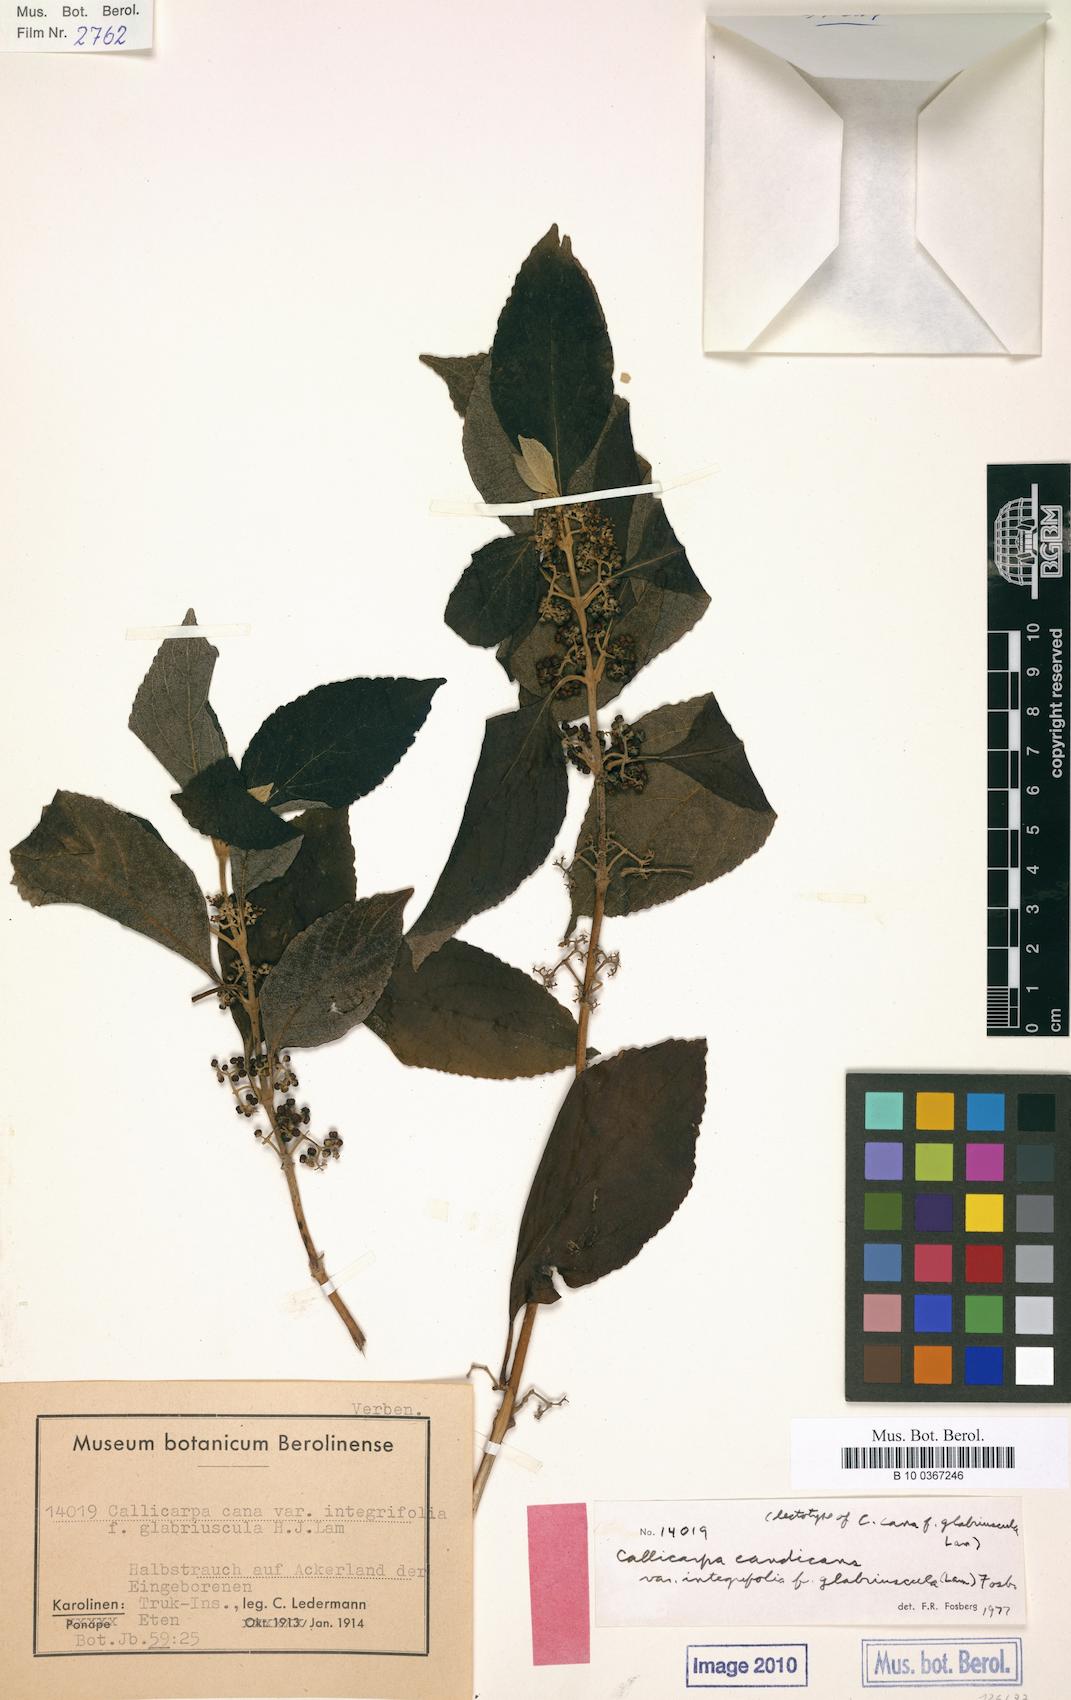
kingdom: Plantae
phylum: Tracheophyta
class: Magnoliopsida
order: Lamiales
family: Lamiaceae
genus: Callicarpa
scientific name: Callicarpa candicans
